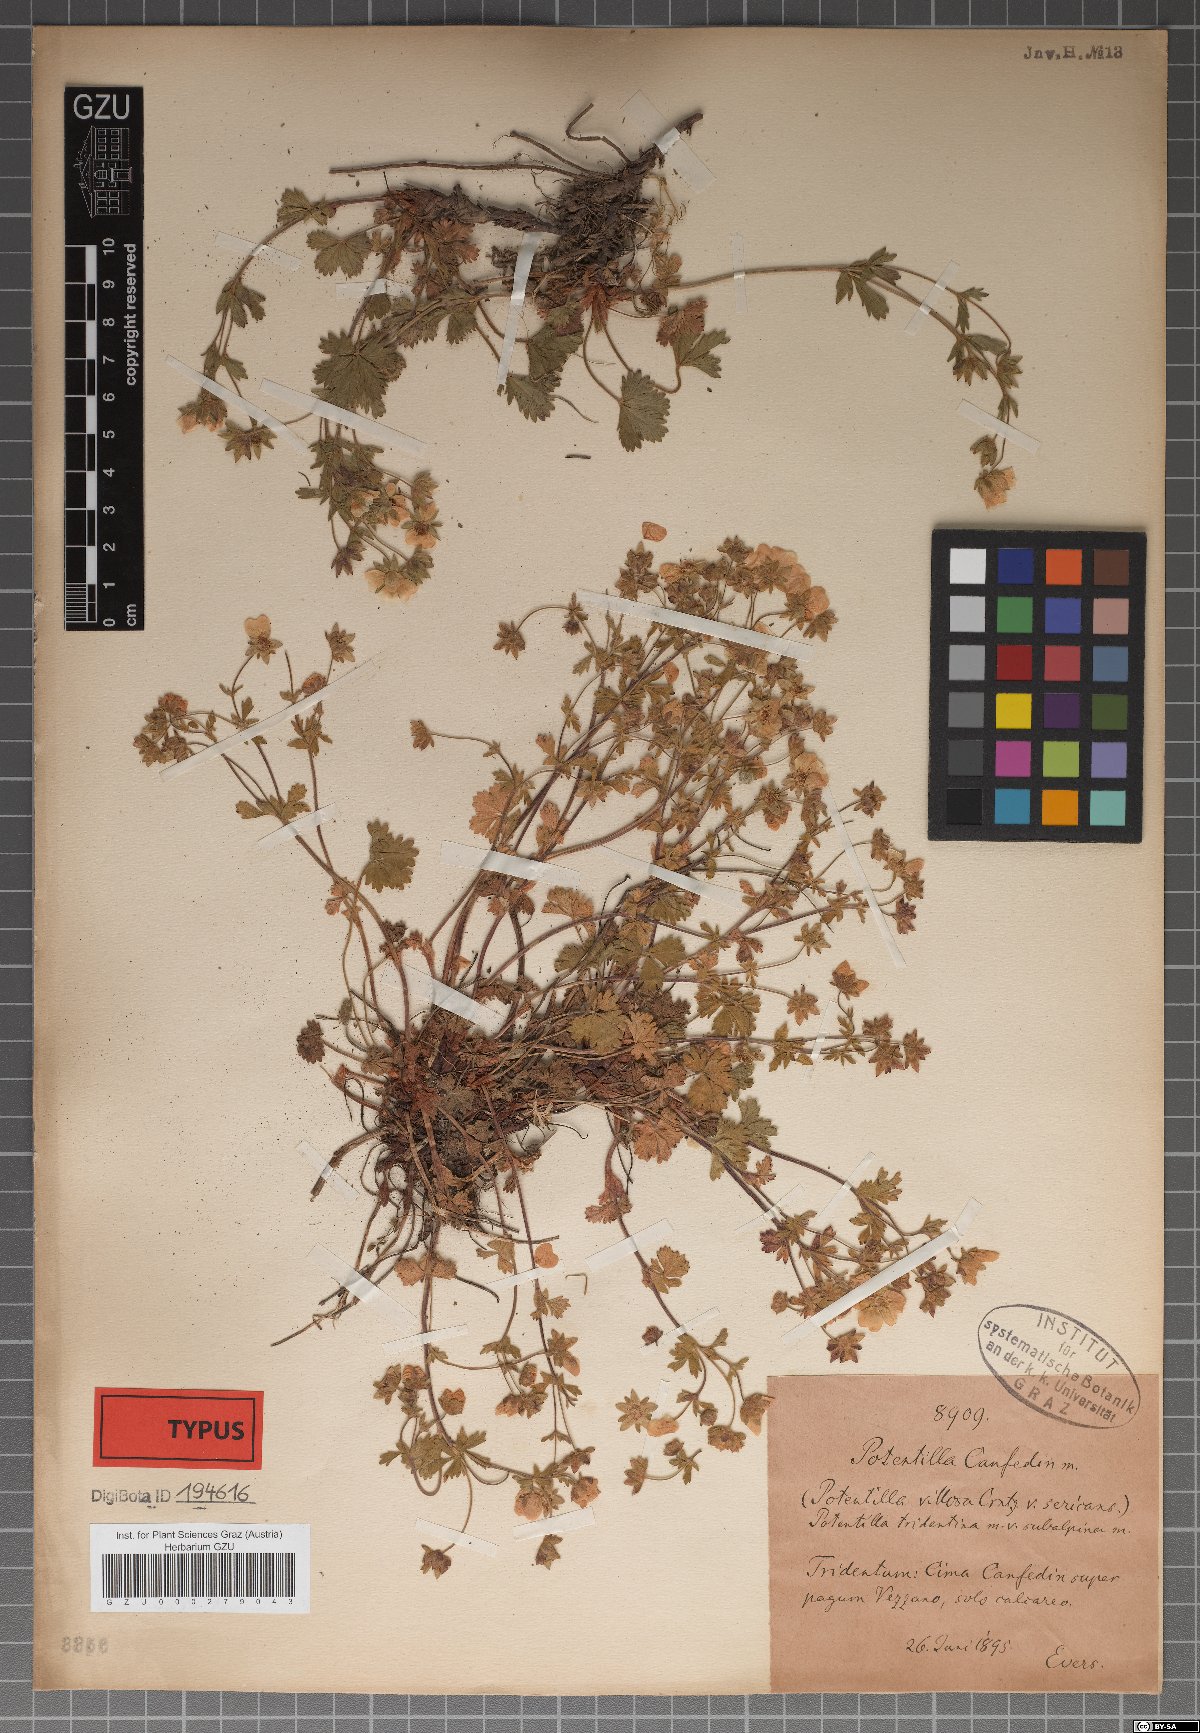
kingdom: Plantae
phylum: Tracheophyta
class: Magnoliopsida
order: Rosales
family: Rosaceae
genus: Potentilla
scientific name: Potentilla crantzii
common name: Alpine cinquefoil
